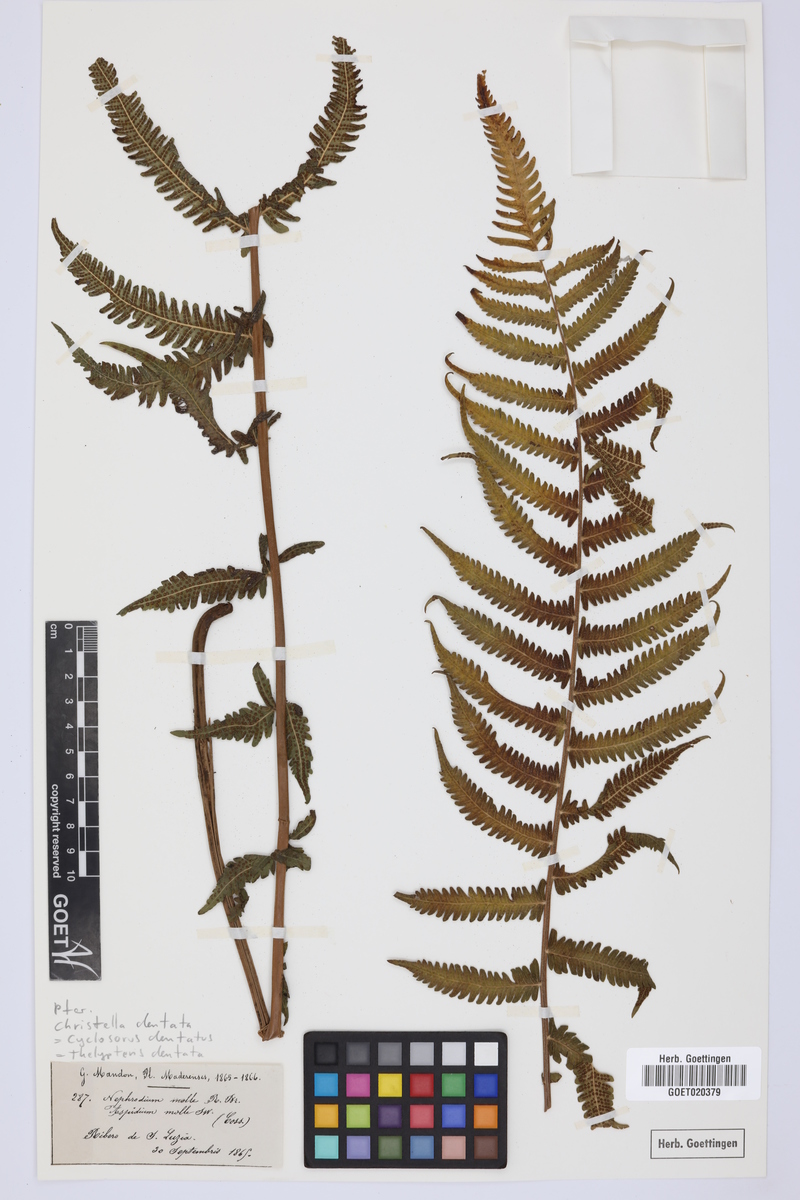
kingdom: Plantae
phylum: Tracheophyta
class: Polypodiopsida
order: Polypodiales
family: Thelypteridaceae
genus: Christella
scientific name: Christella dentata
